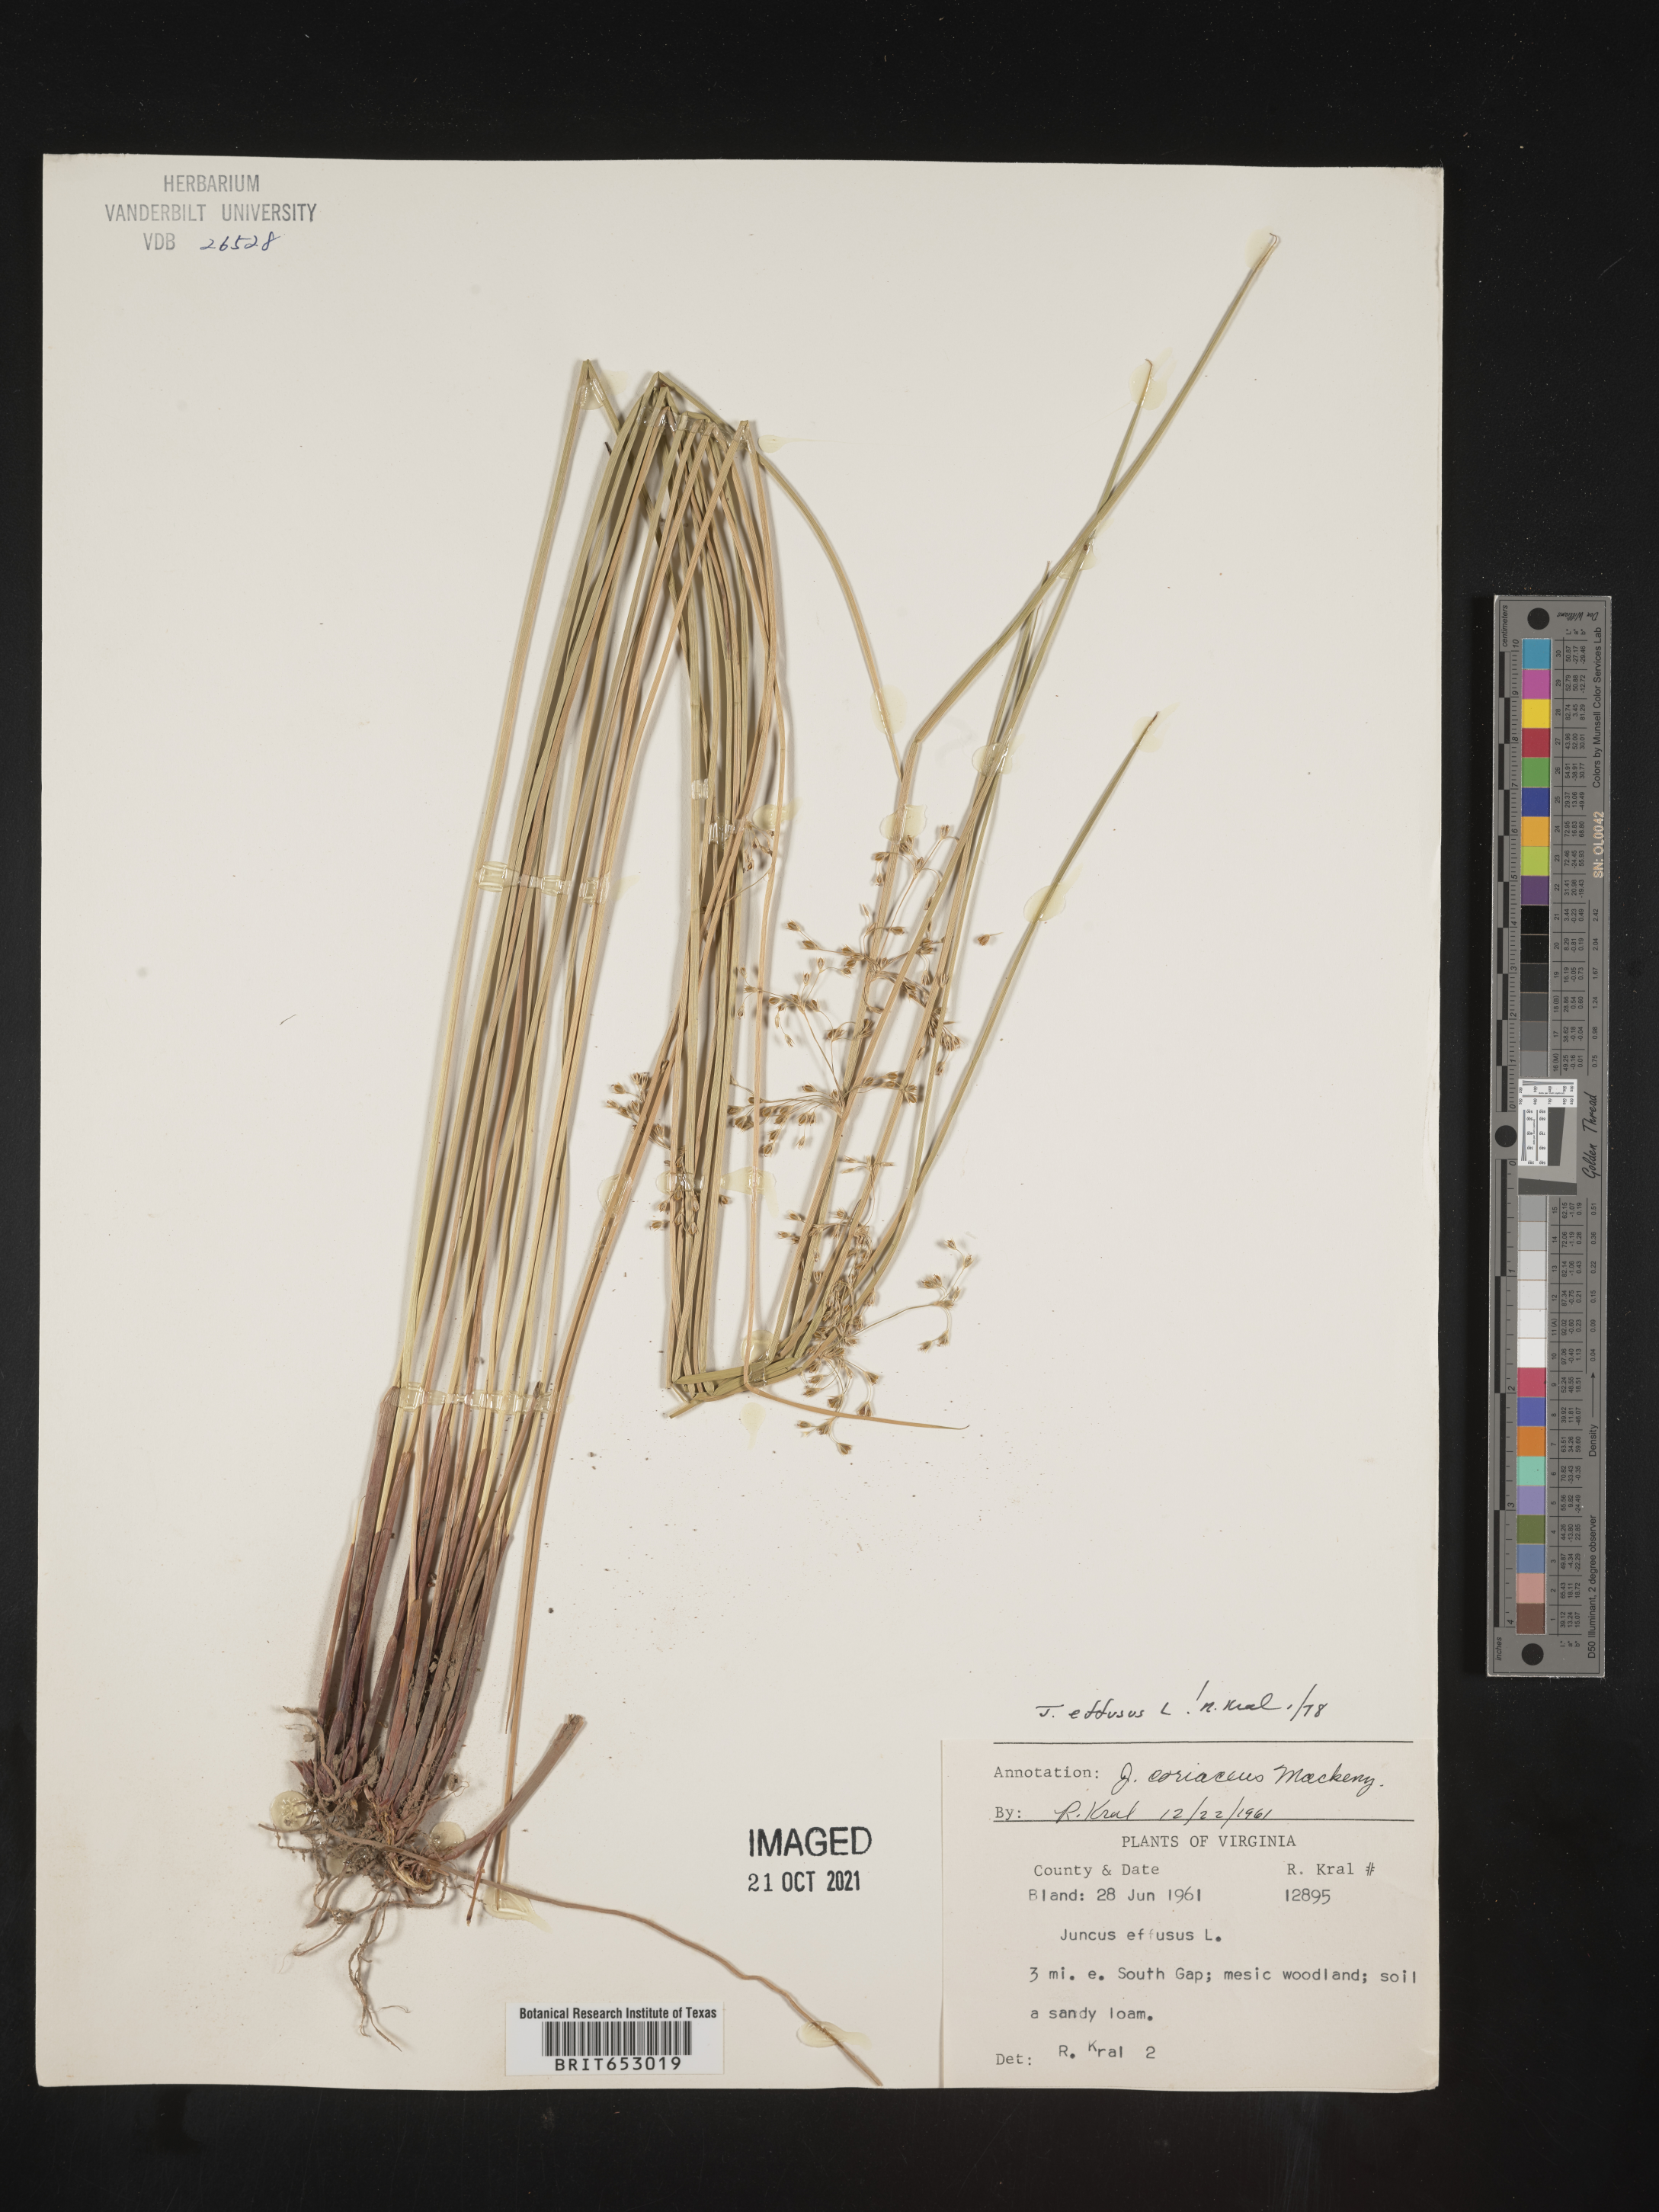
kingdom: Plantae
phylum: Tracheophyta
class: Liliopsida
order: Poales
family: Juncaceae
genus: Juncus
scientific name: Juncus effusus
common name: Soft rush
